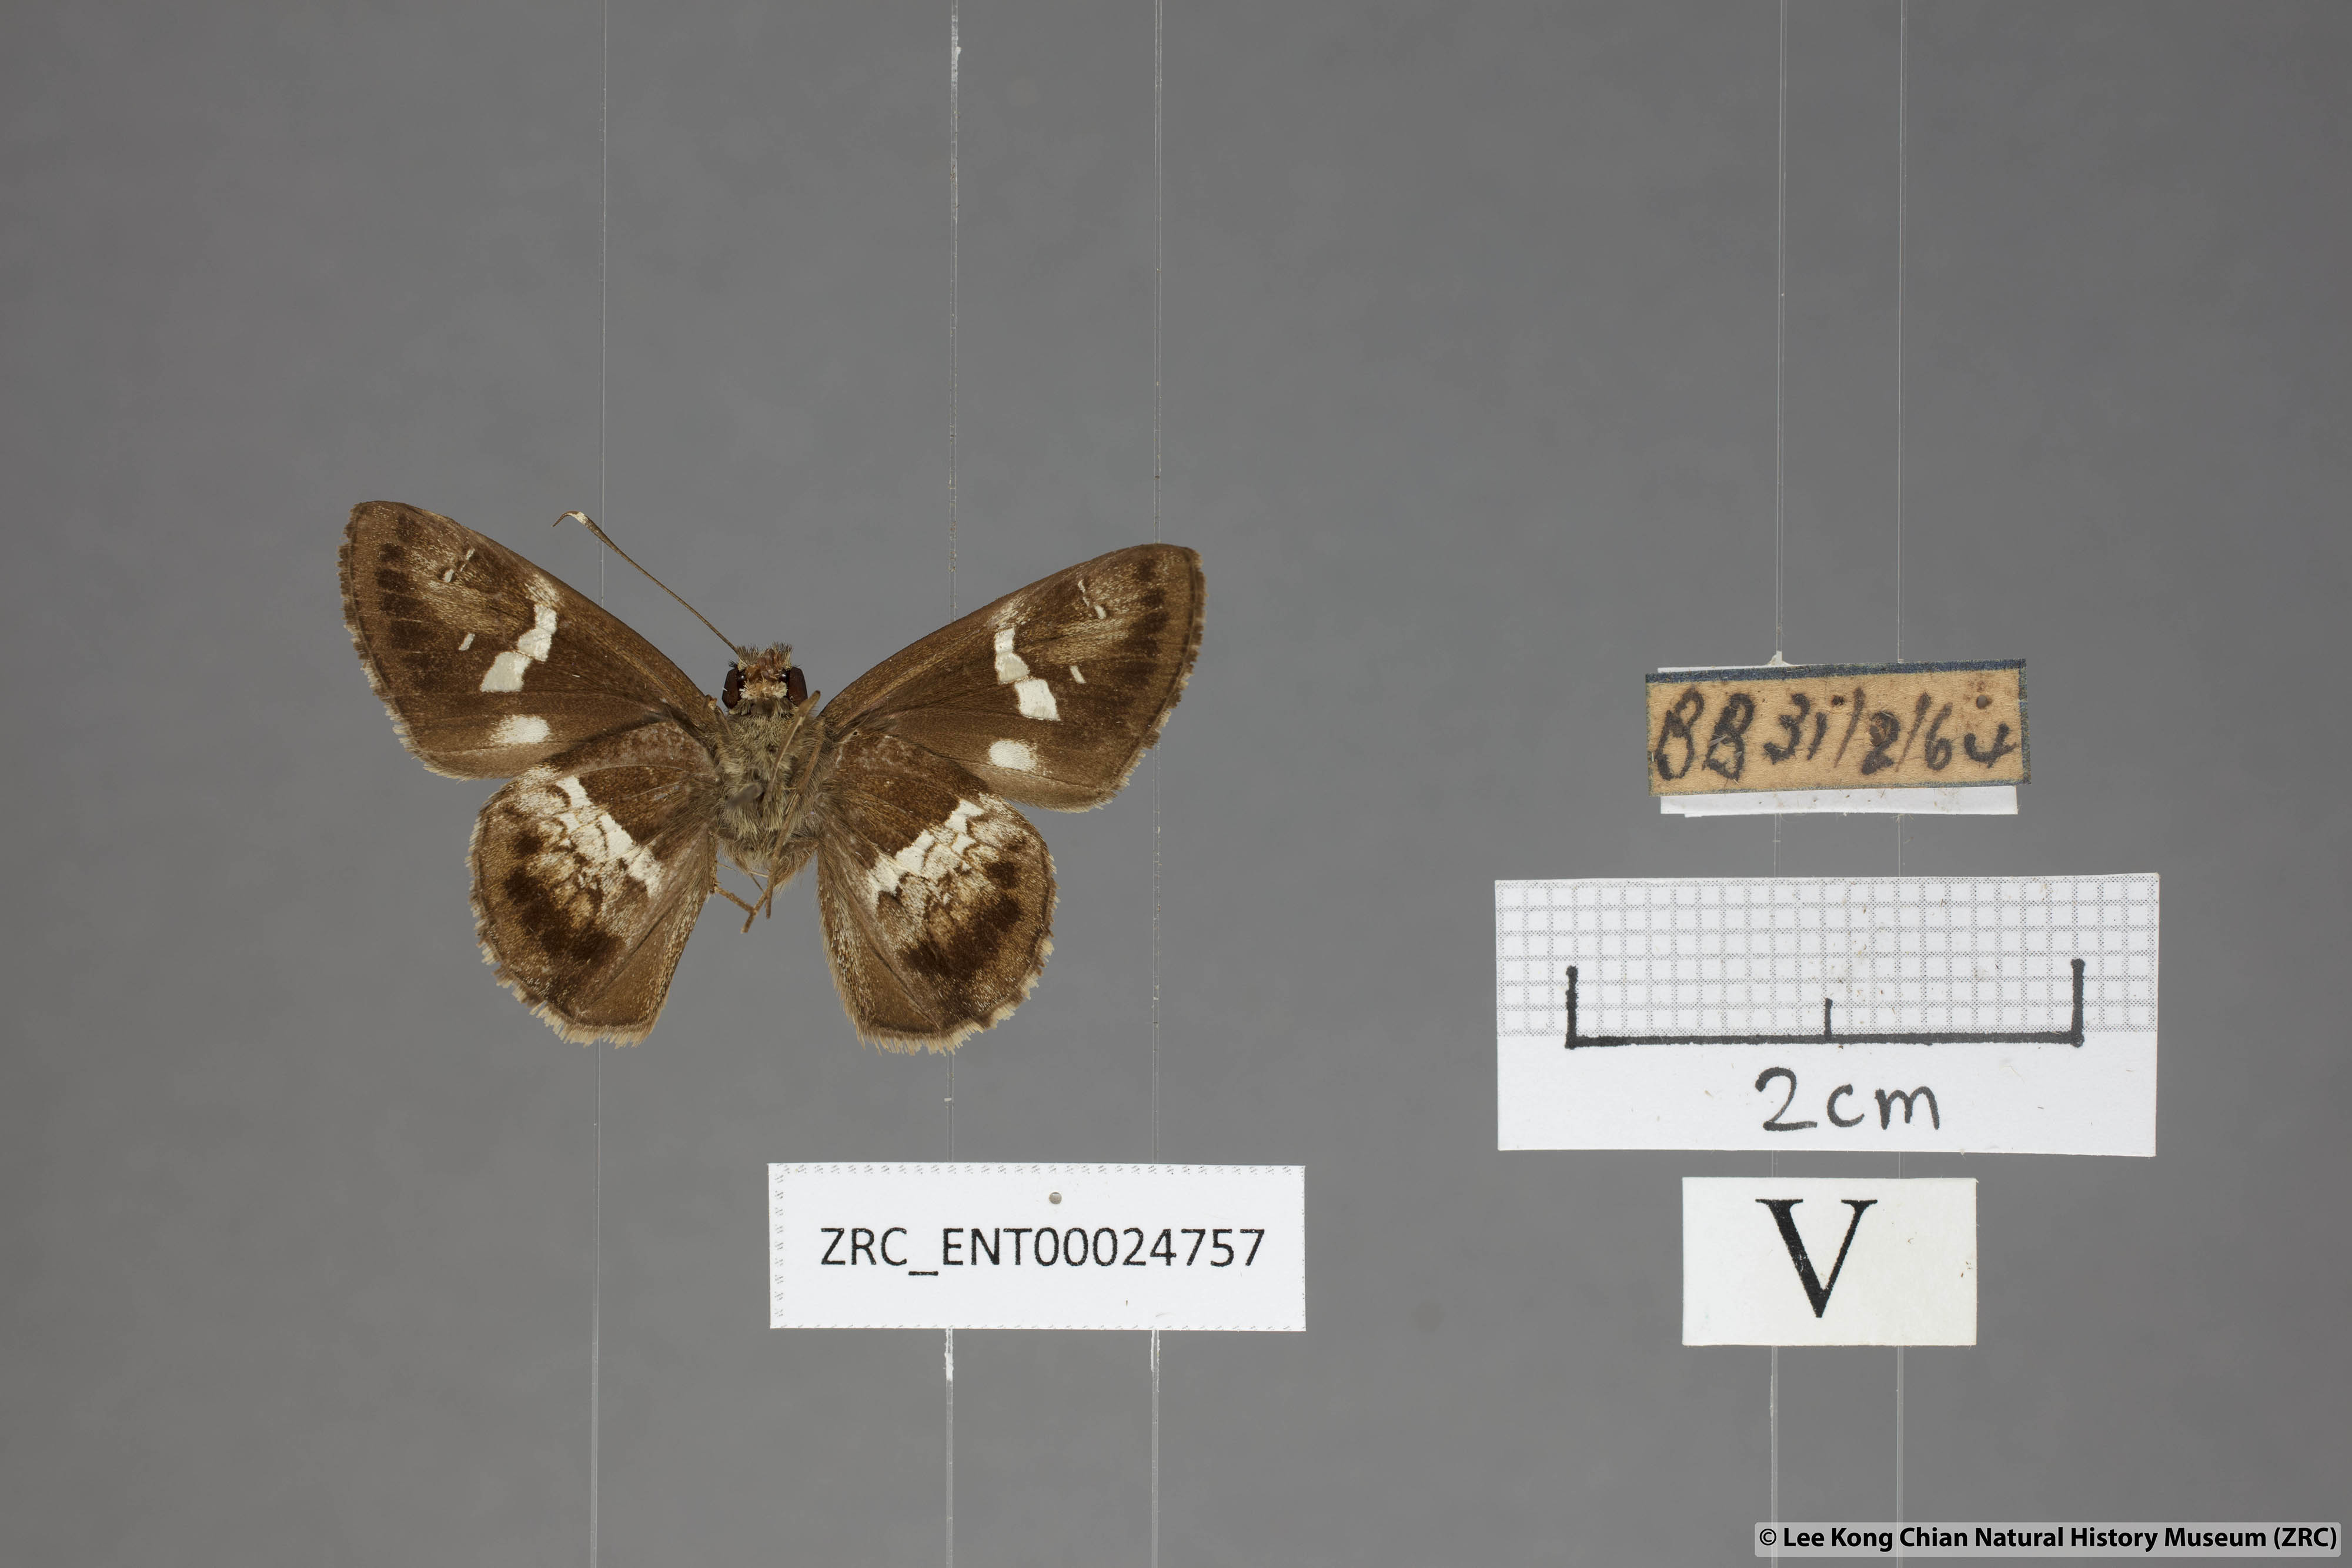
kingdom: Animalia
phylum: Arthropoda
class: Insecta
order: Lepidoptera
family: Hesperiidae
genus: Hyarotis
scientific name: Hyarotis adrastus
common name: Tree flitter
